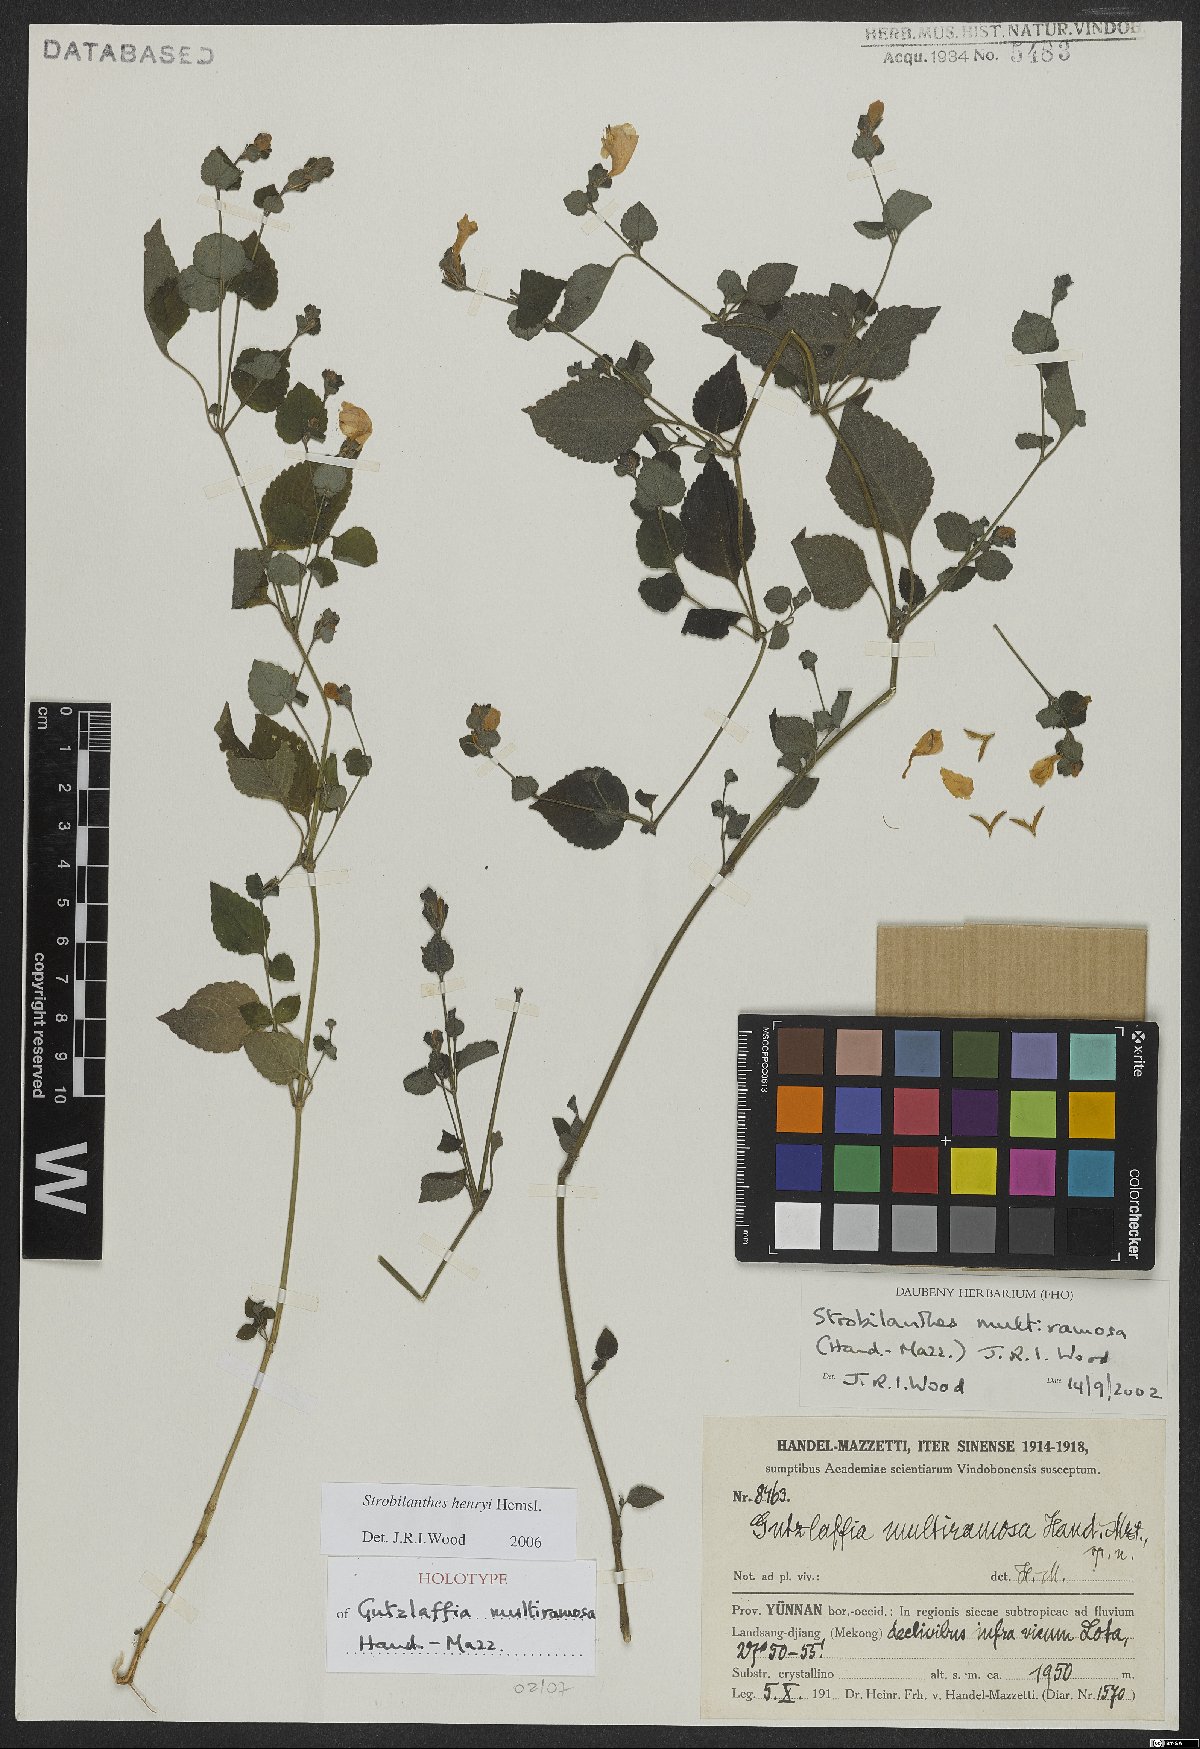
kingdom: Plantae
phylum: Tracheophyta
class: Magnoliopsida
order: Lamiales
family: Acanthaceae
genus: Strobilanthes
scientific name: Strobilanthes henryi
